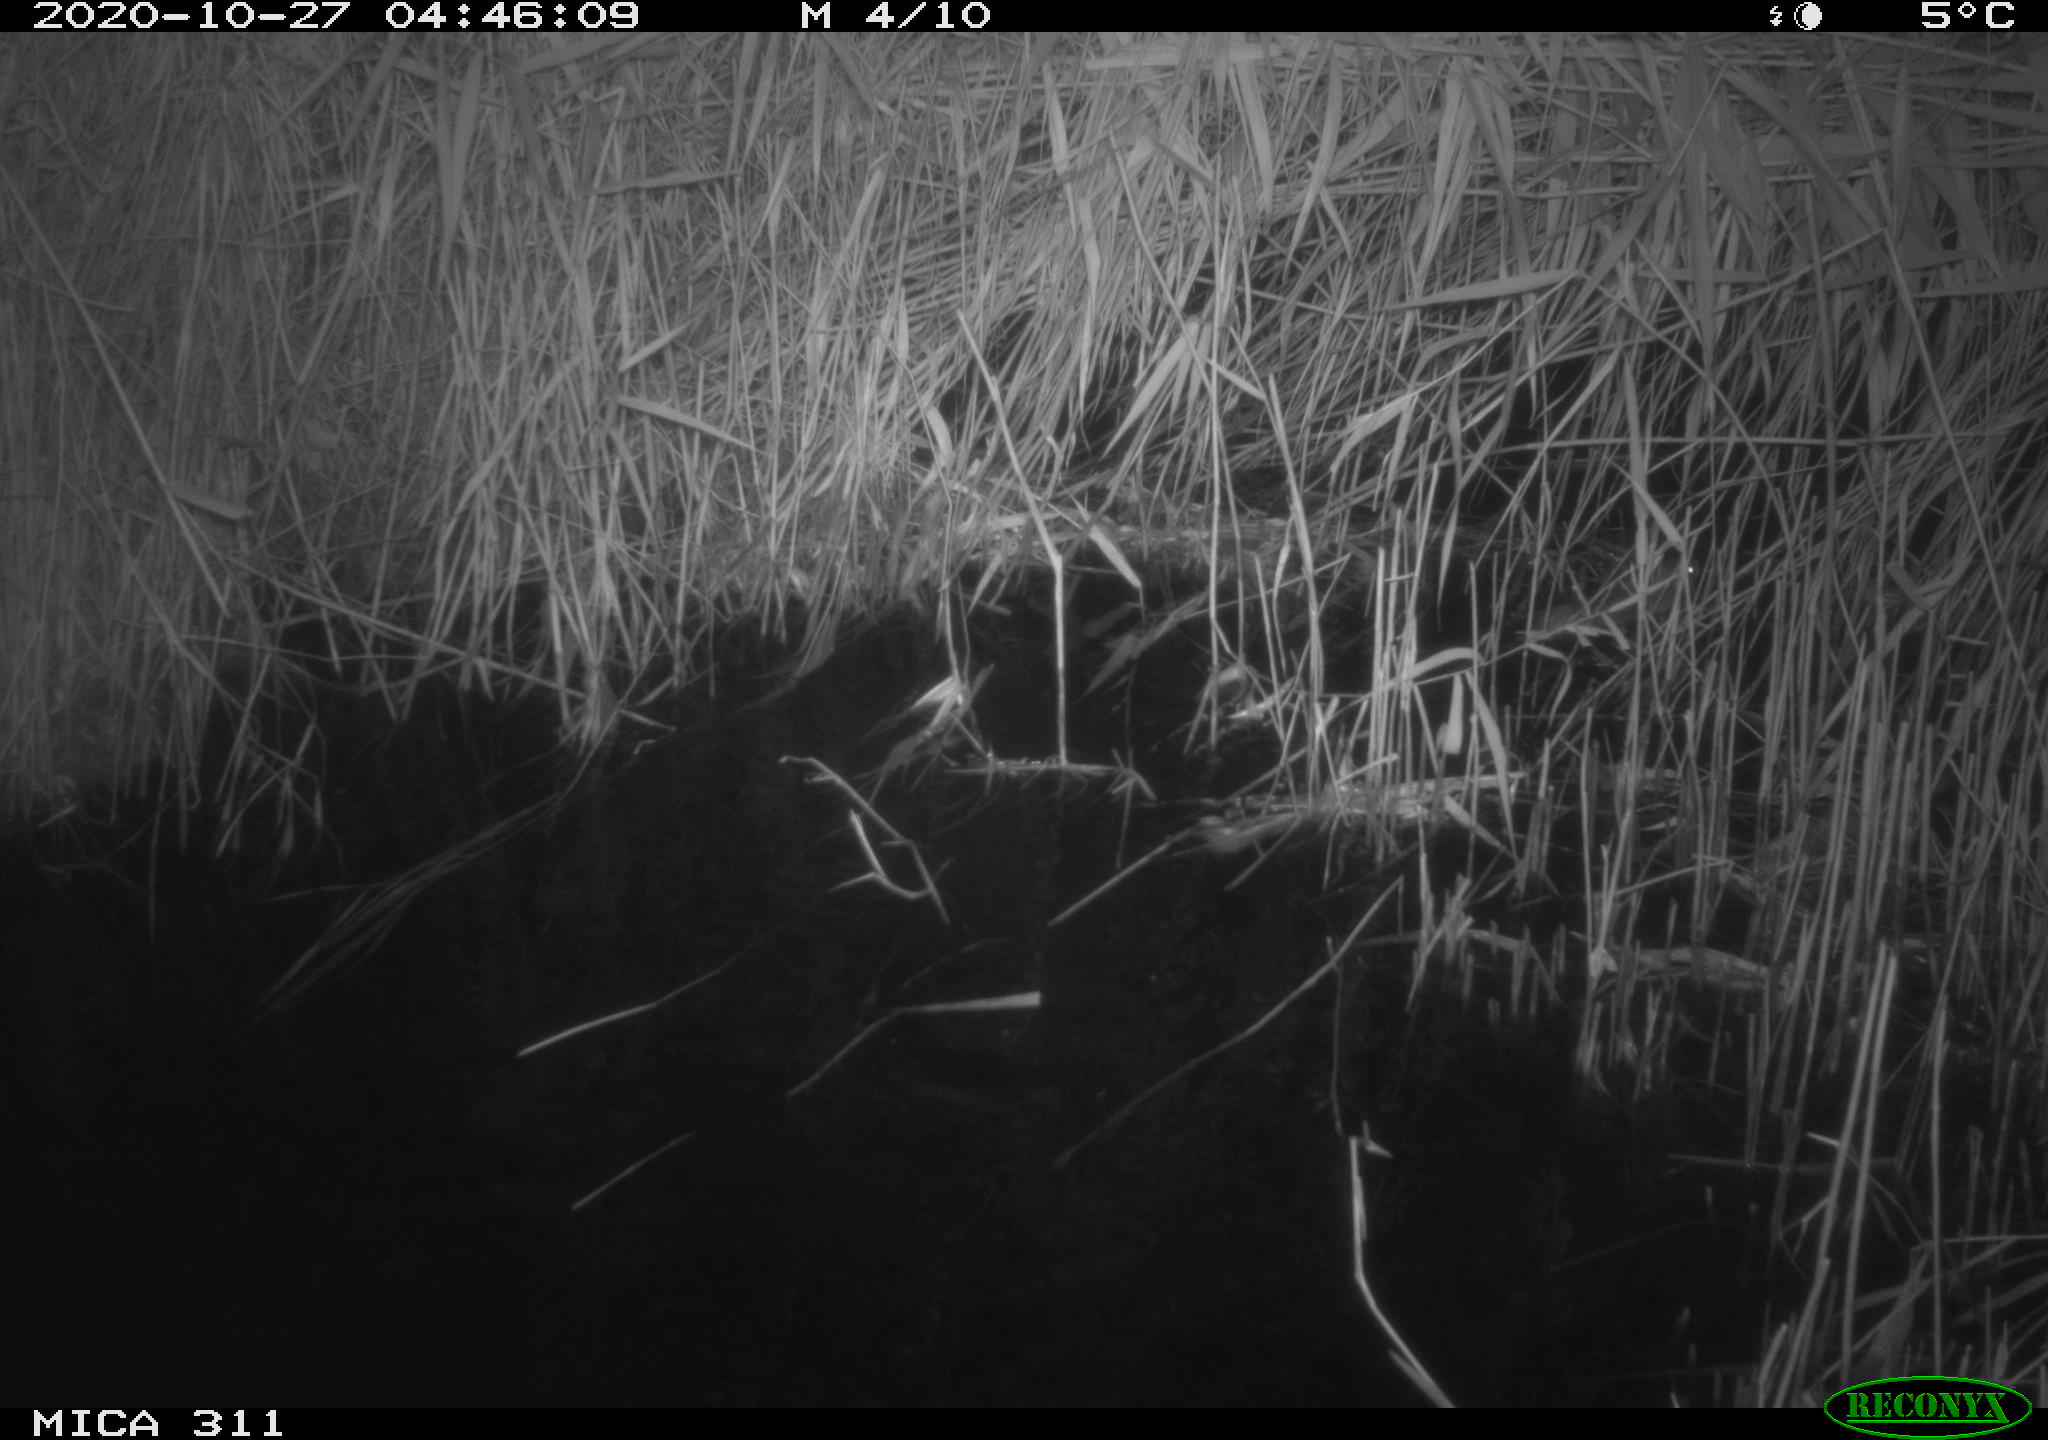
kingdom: Animalia
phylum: Chordata
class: Mammalia
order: Rodentia
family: Muridae
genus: Rattus
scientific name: Rattus norvegicus
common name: Brown rat
